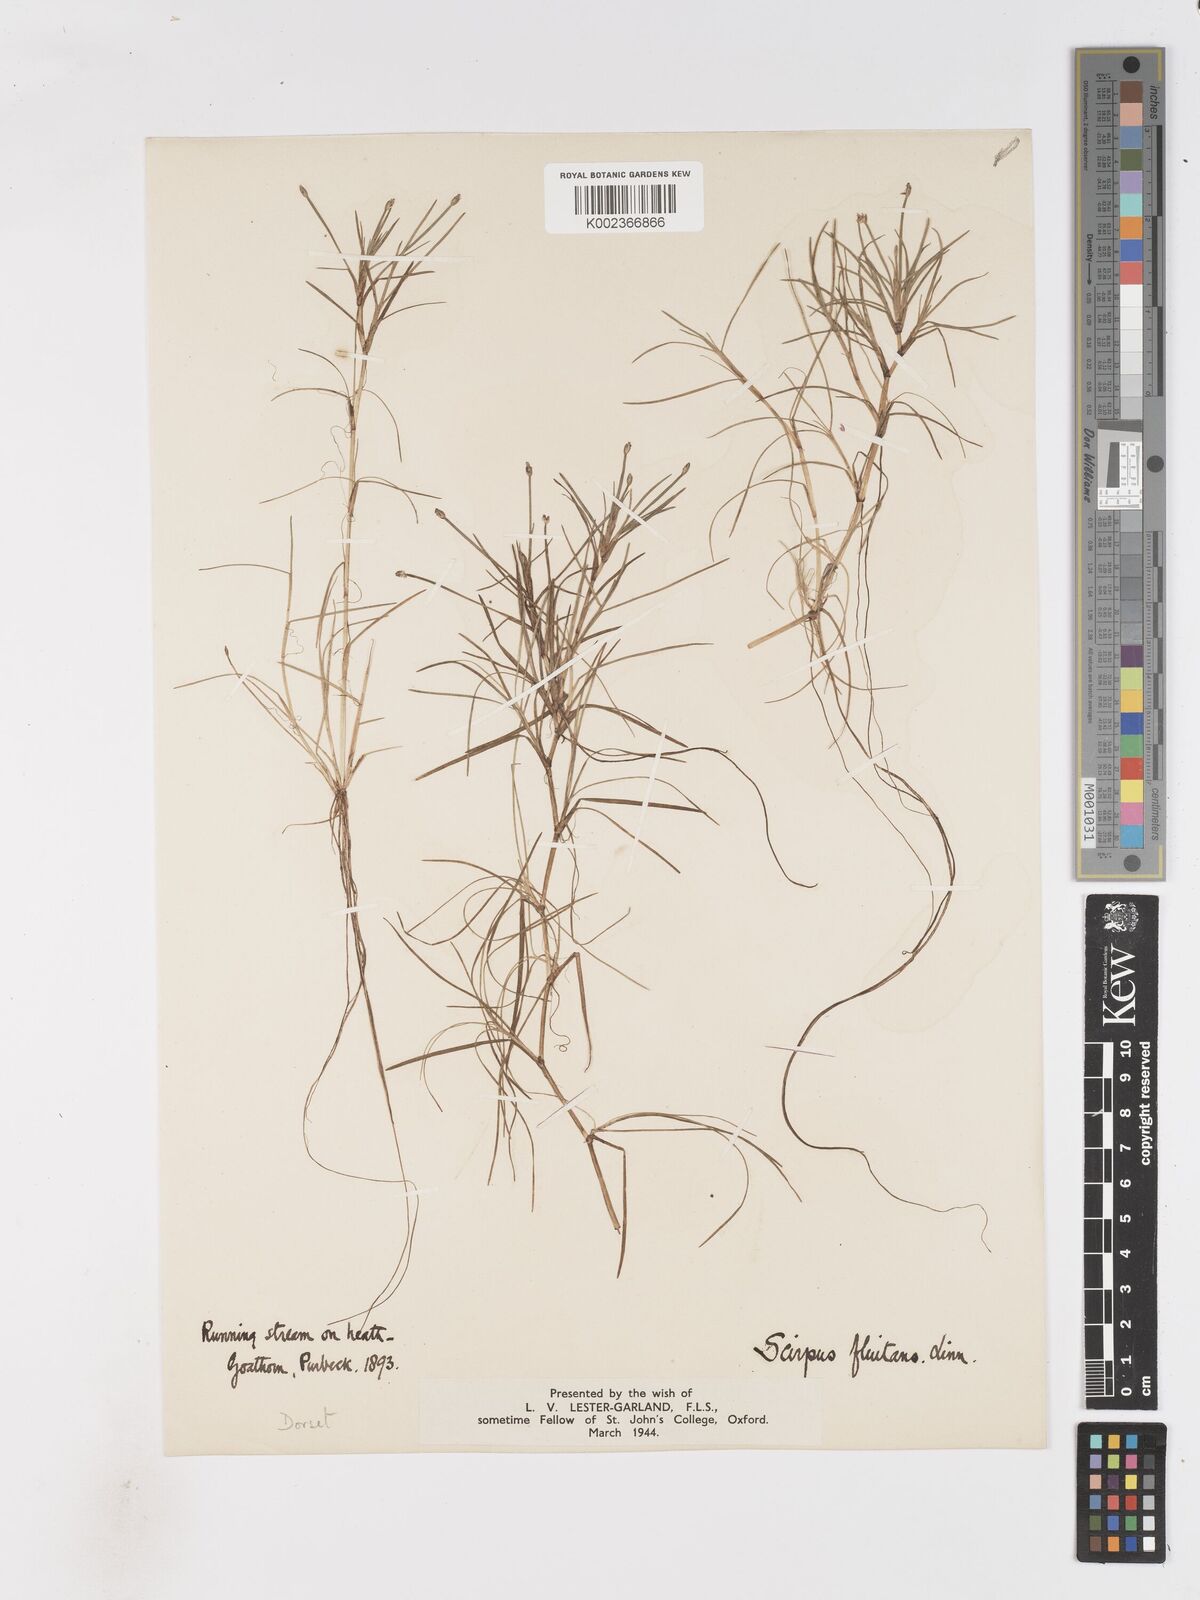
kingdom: Plantae
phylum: Tracheophyta
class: Liliopsida
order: Poales
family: Cyperaceae
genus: Isolepis
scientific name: Isolepis fluitans
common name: Floating club-rush
